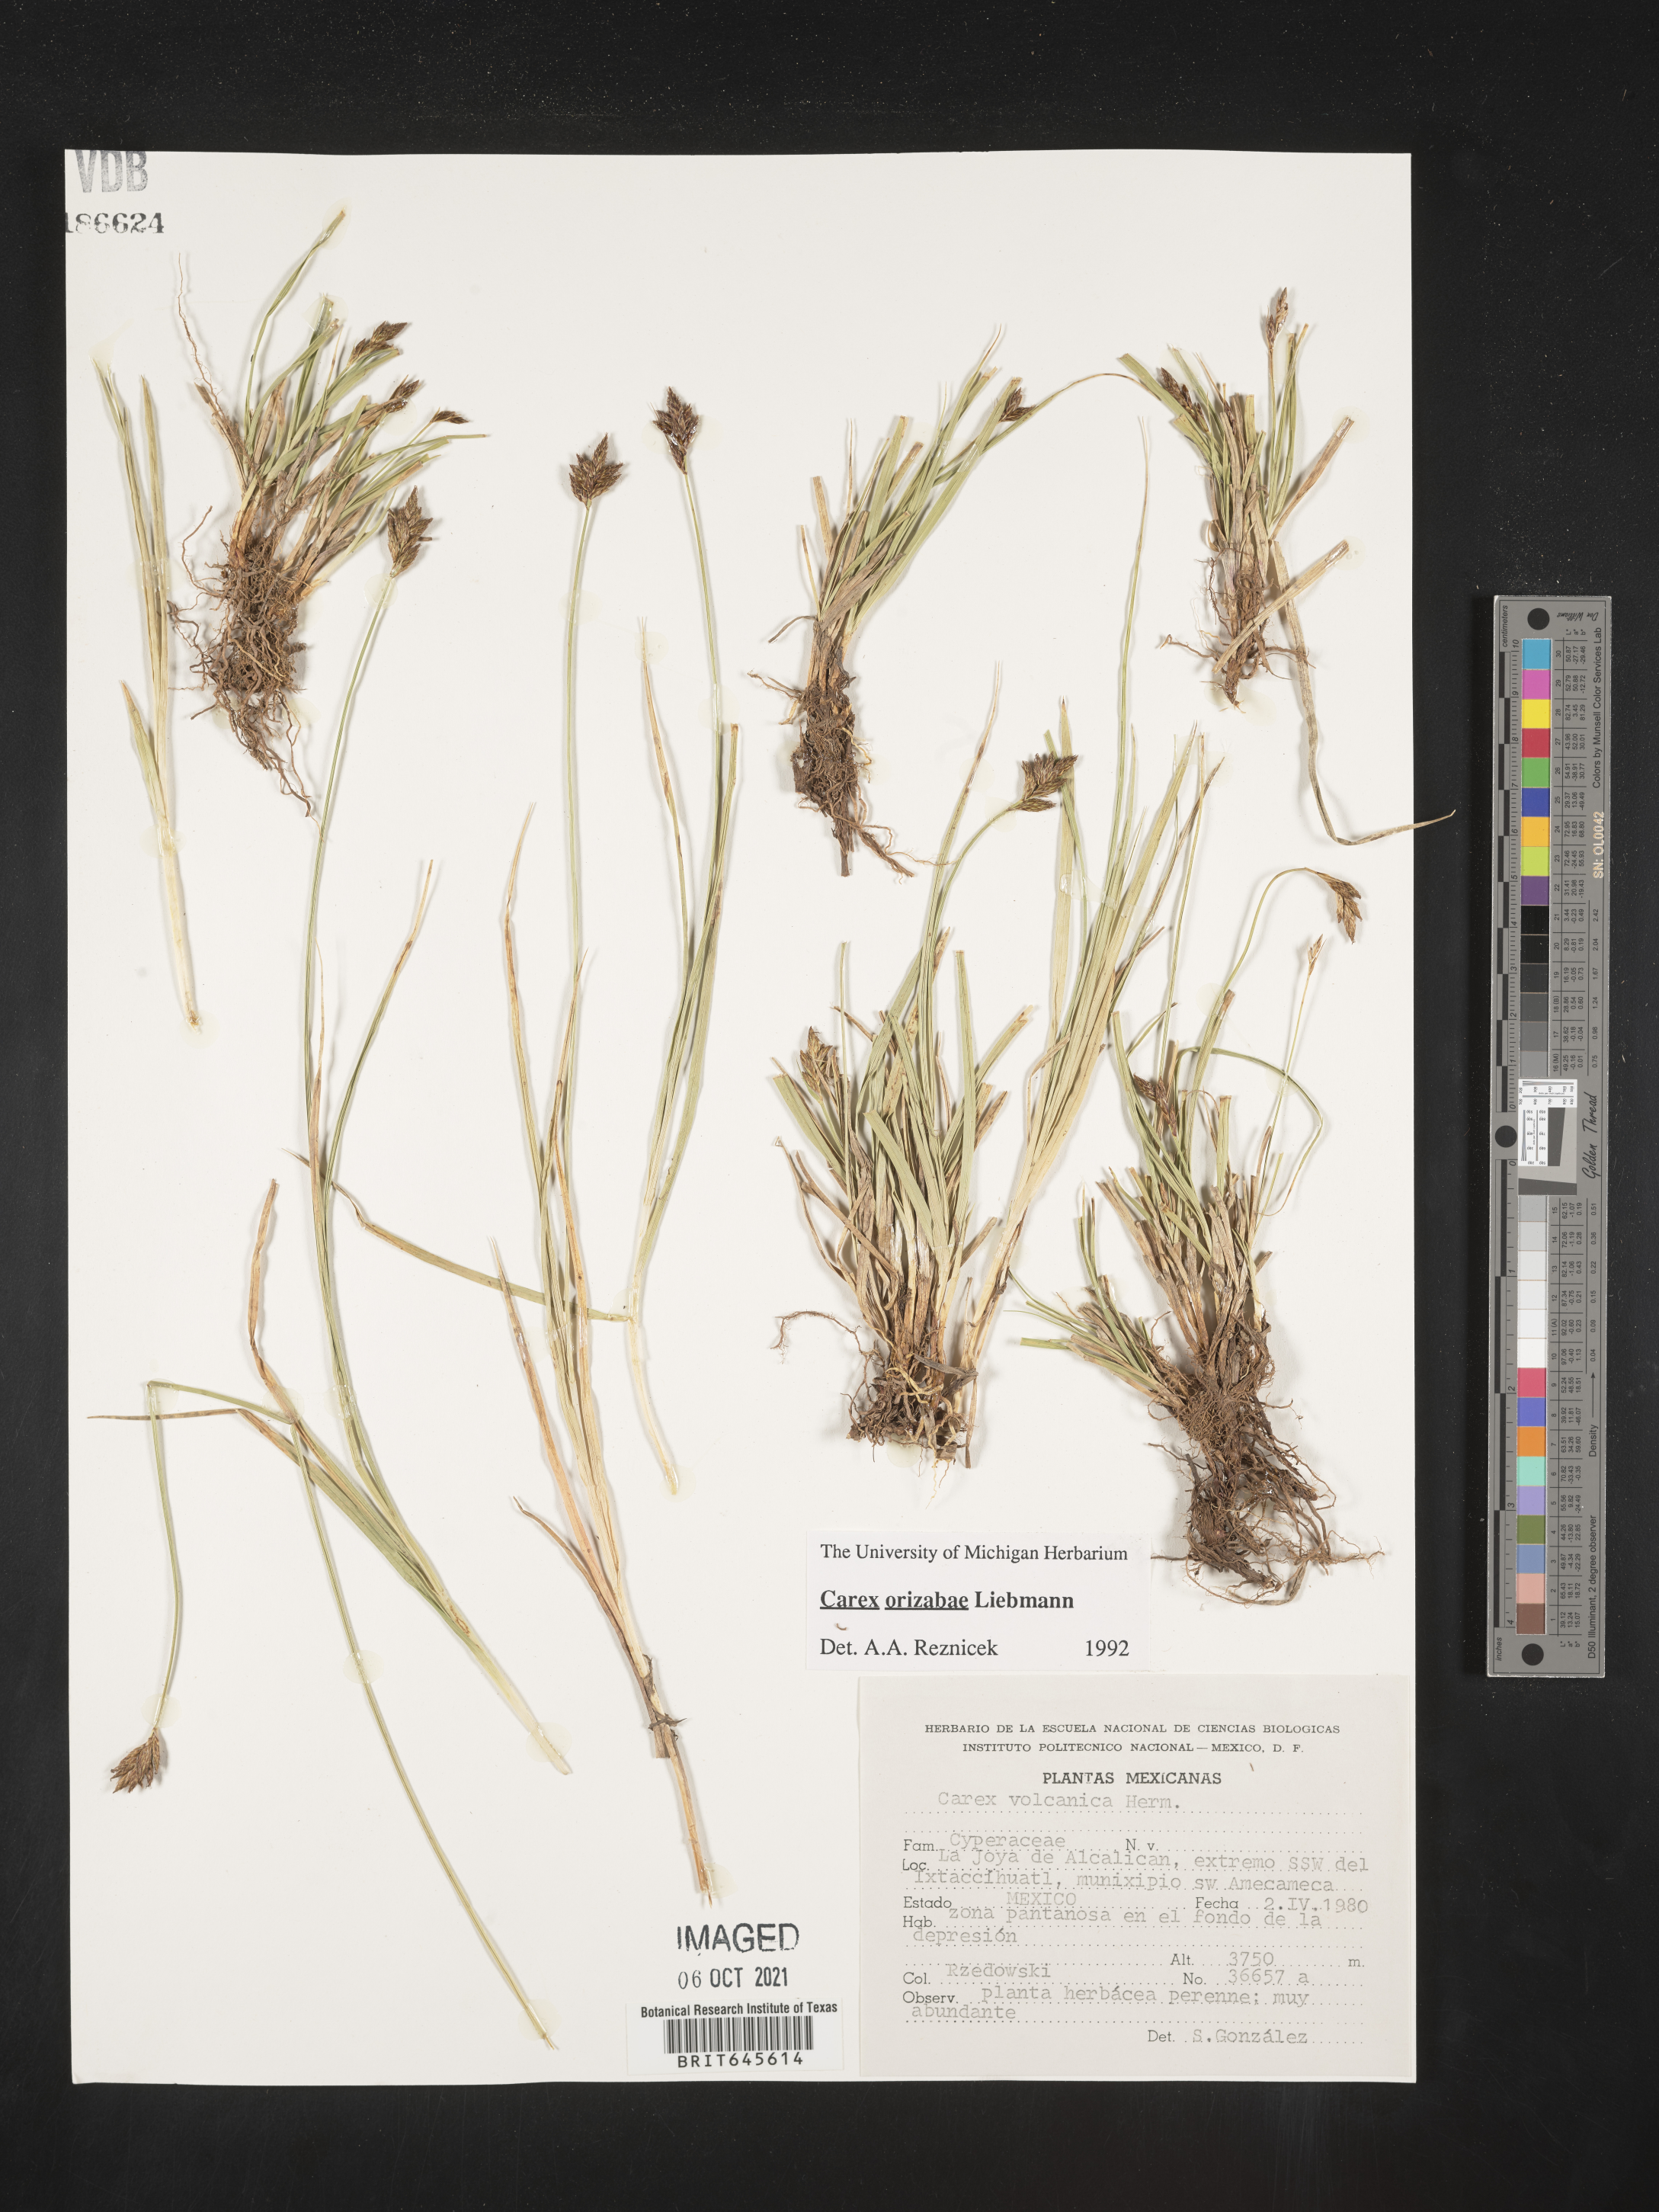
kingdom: Plantae
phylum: Tracheophyta
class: Liliopsida
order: Poales
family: Cyperaceae
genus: Carex
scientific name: Carex
